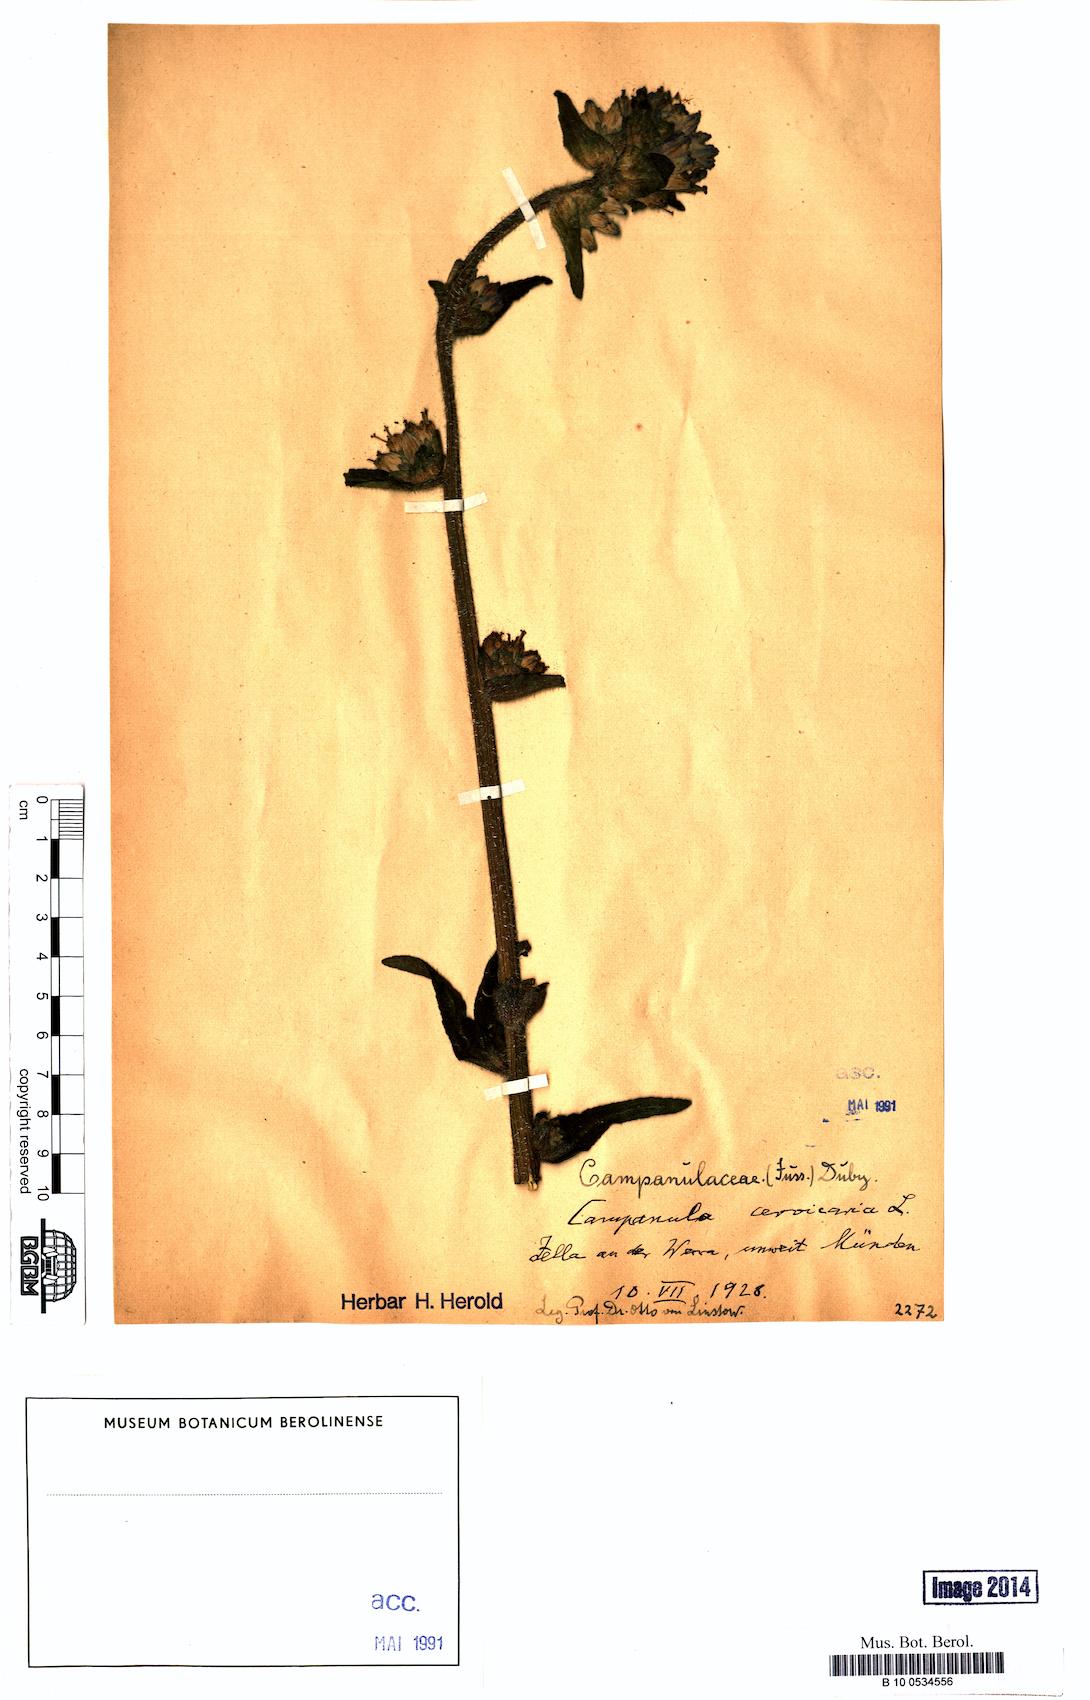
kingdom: Plantae
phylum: Tracheophyta
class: Magnoliopsida
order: Asterales
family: Campanulaceae
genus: Campanula
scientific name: Campanula cervicaria
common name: Bristly bellflower
